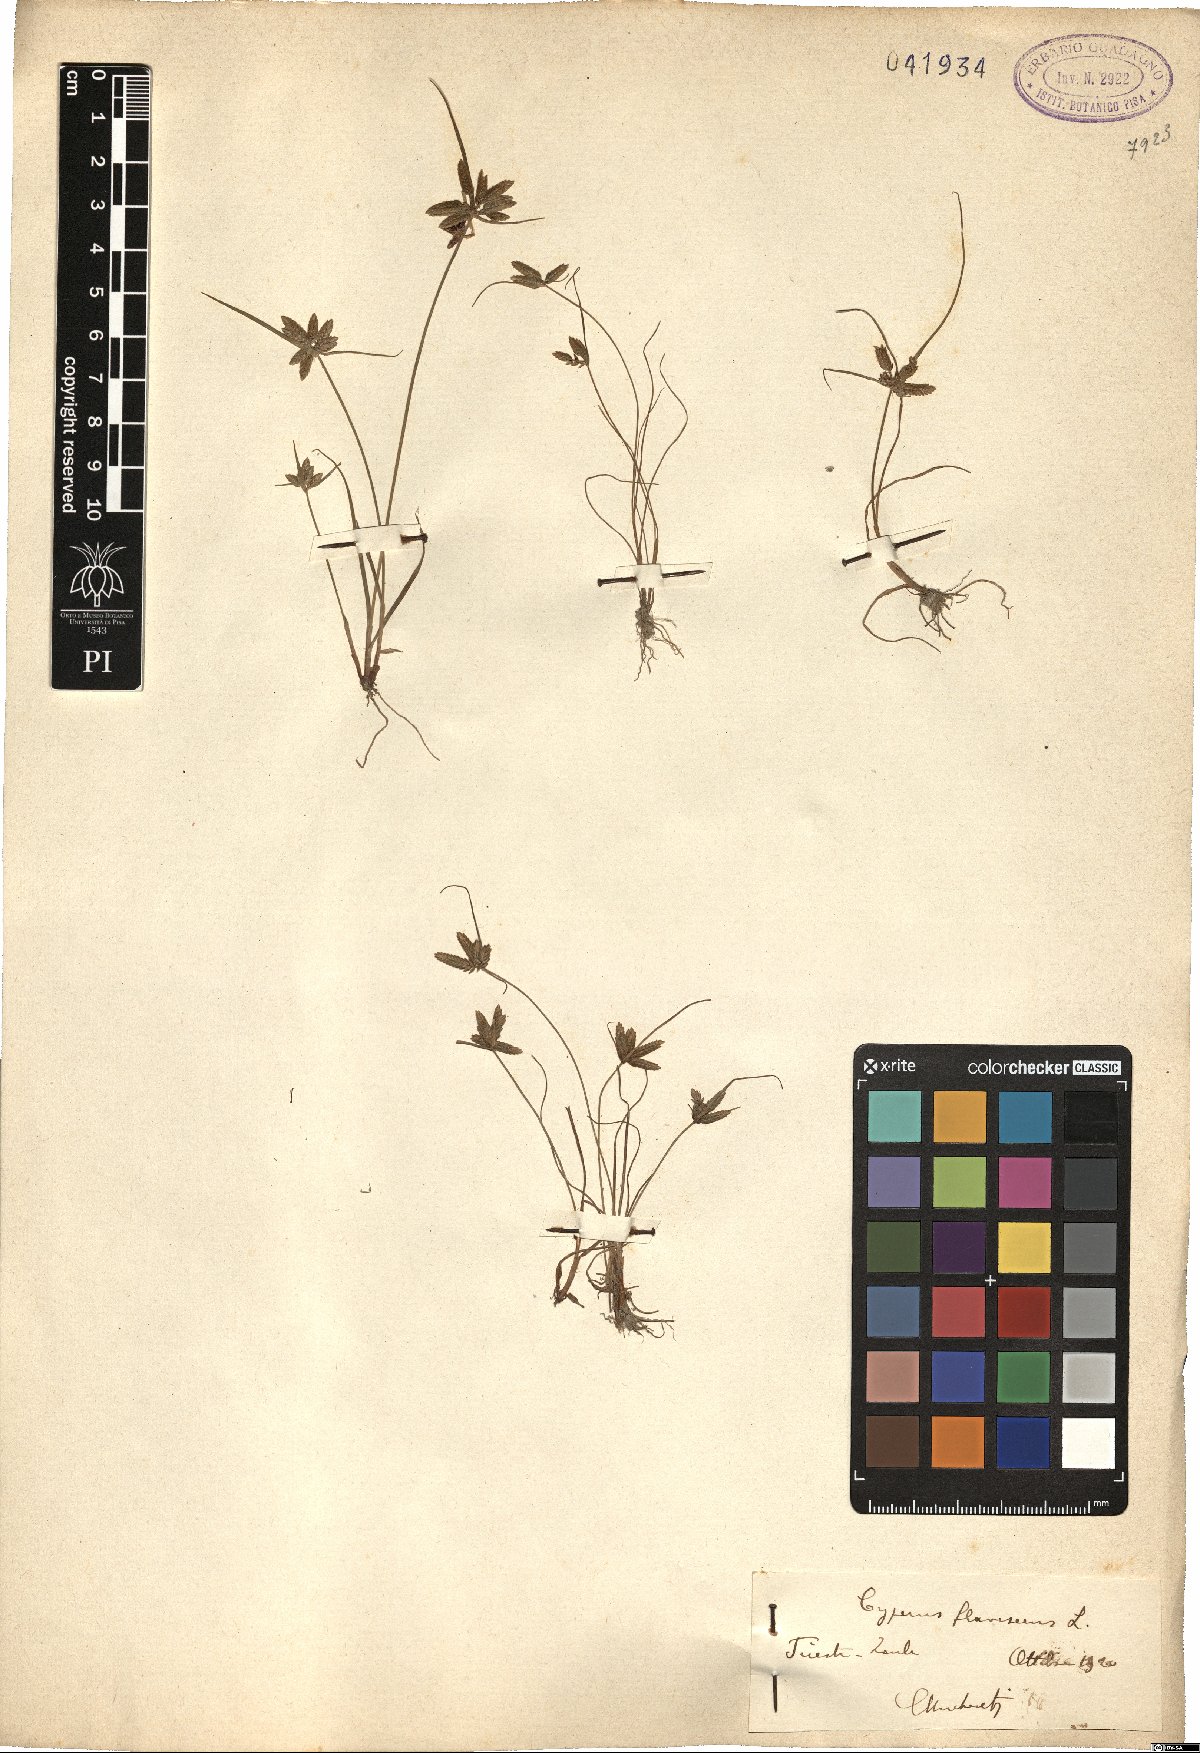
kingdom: Plantae
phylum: Tracheophyta
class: Liliopsida
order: Poales
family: Cyperaceae
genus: Cyperus
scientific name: Cyperus flavescens
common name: Yellow galingale
